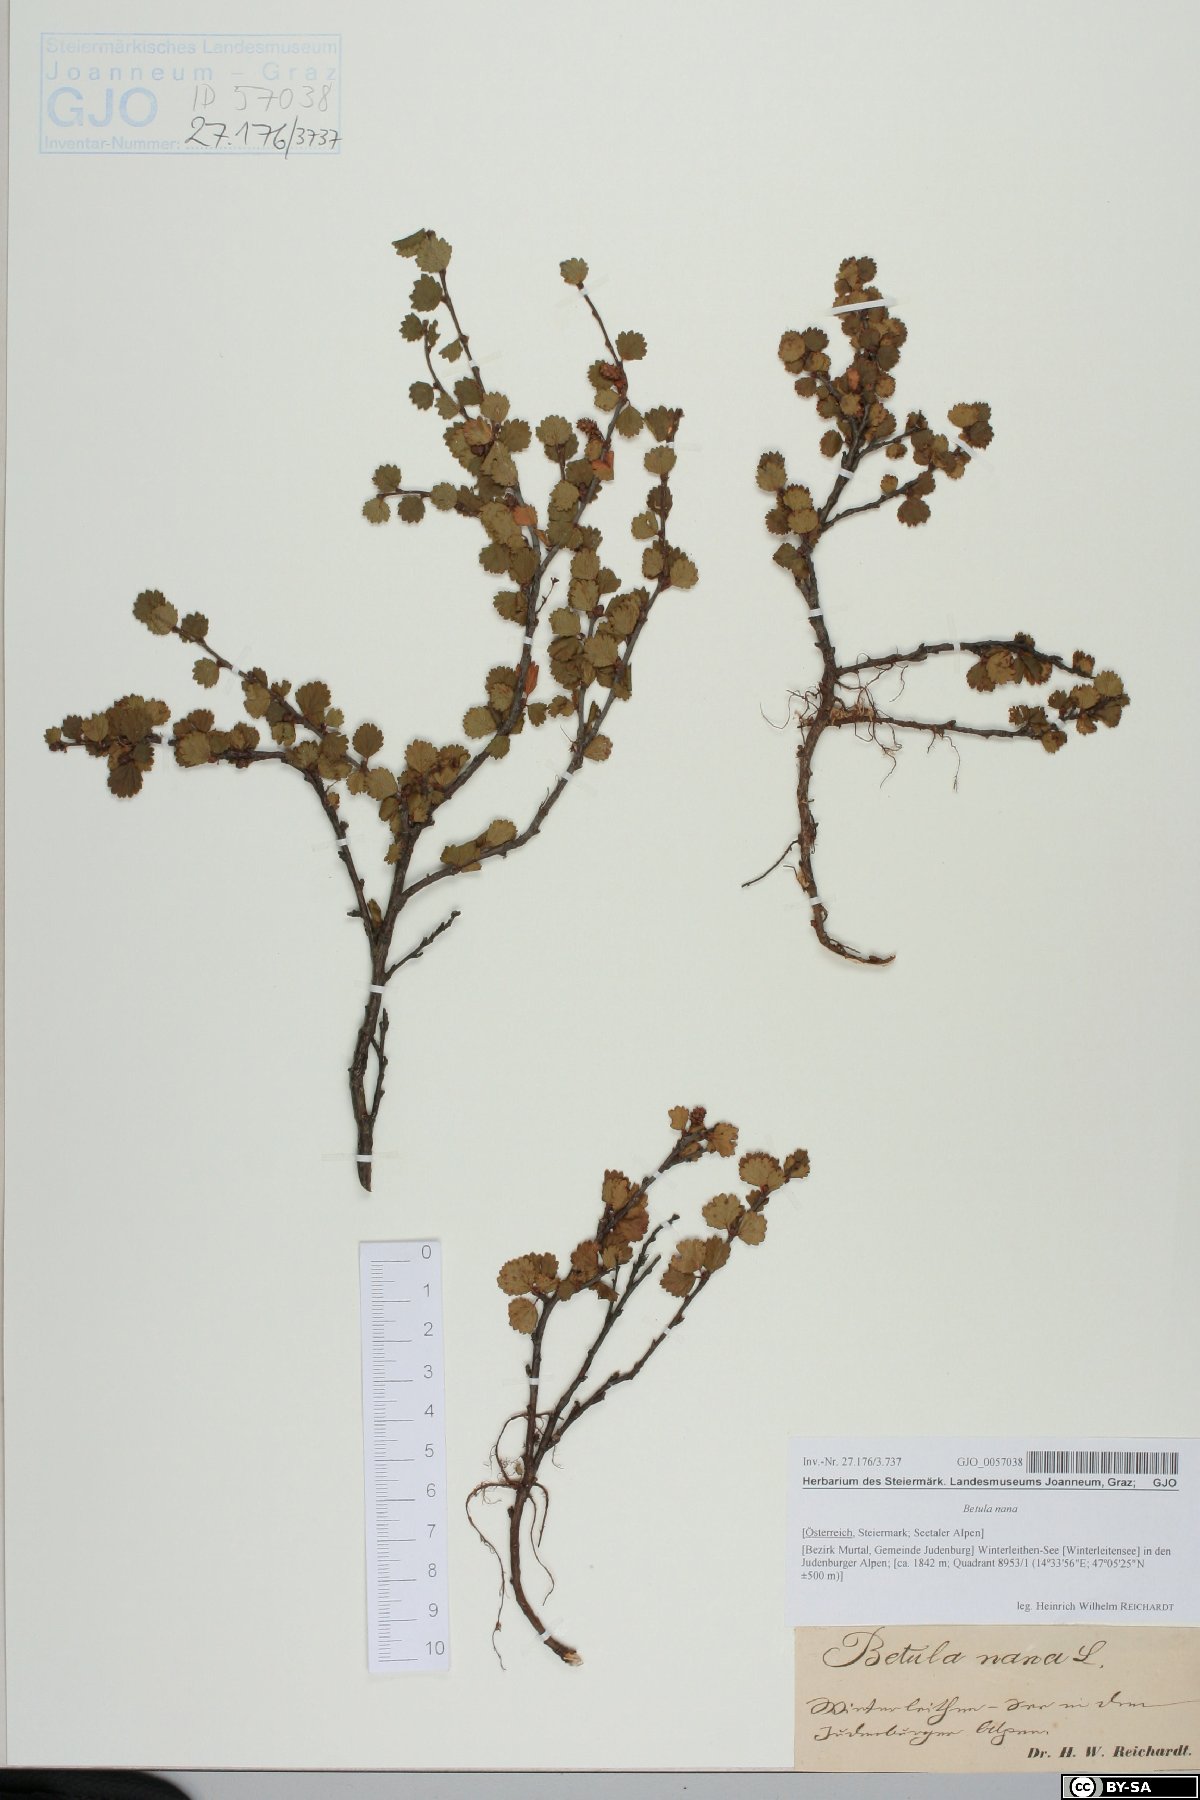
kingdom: Plantae
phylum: Tracheophyta
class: Magnoliopsida
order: Fagales
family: Betulaceae
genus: Betula
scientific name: Betula nana
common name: Arctic dwarf birch
